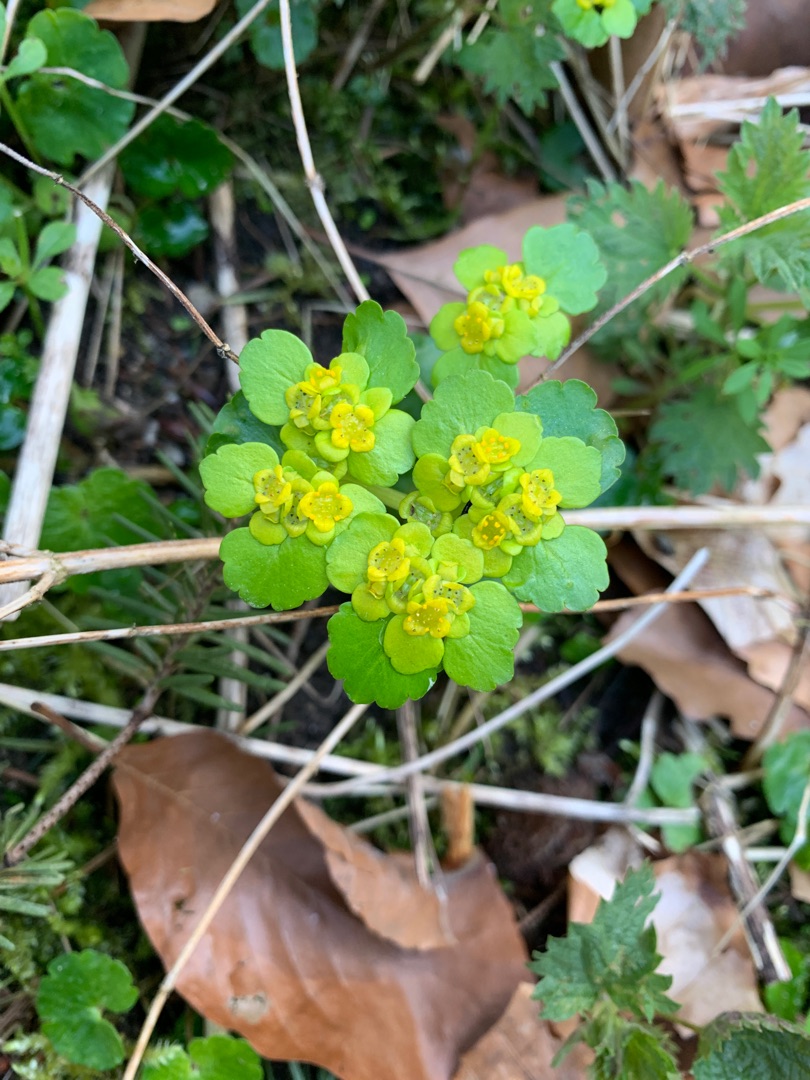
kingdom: Plantae
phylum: Tracheophyta
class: Magnoliopsida
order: Saxifragales
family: Saxifragaceae
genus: Chrysosplenium
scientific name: Chrysosplenium alternifolium
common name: Almindelig milturt
